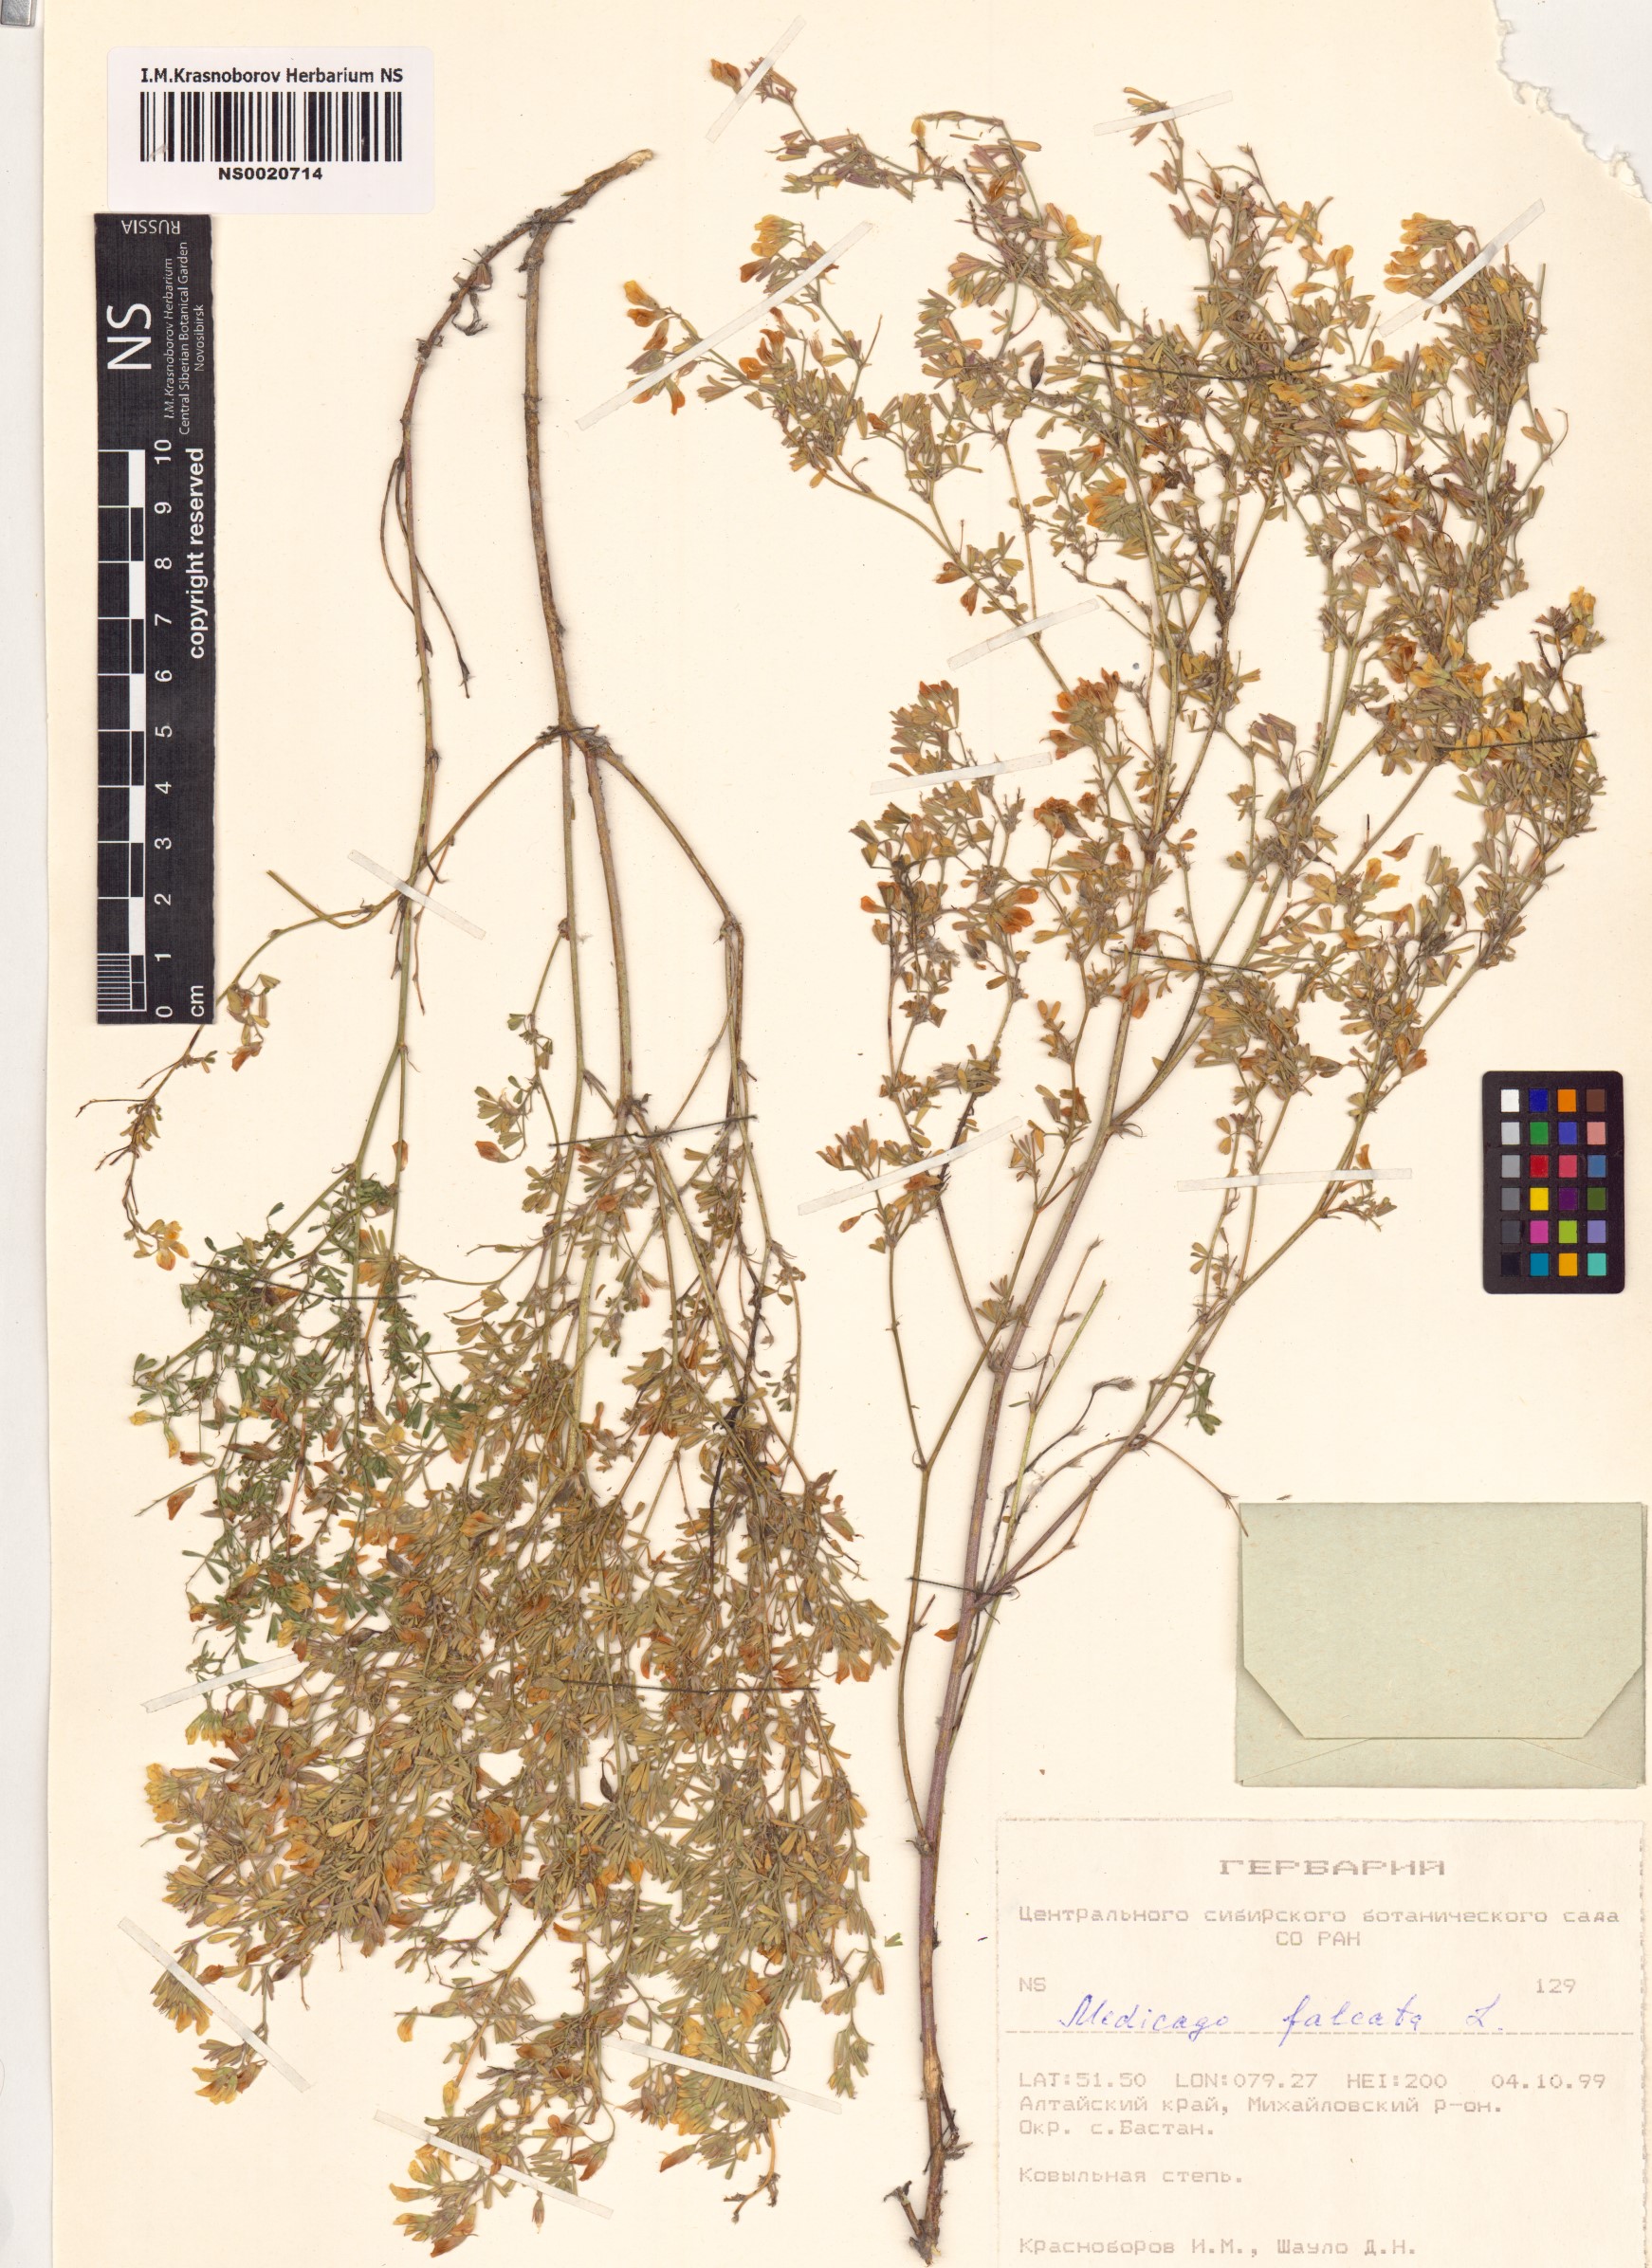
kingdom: Plantae
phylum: Tracheophyta
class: Magnoliopsida
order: Fabales
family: Fabaceae
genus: Medicago
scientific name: Medicago falcata
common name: Sickle medick
